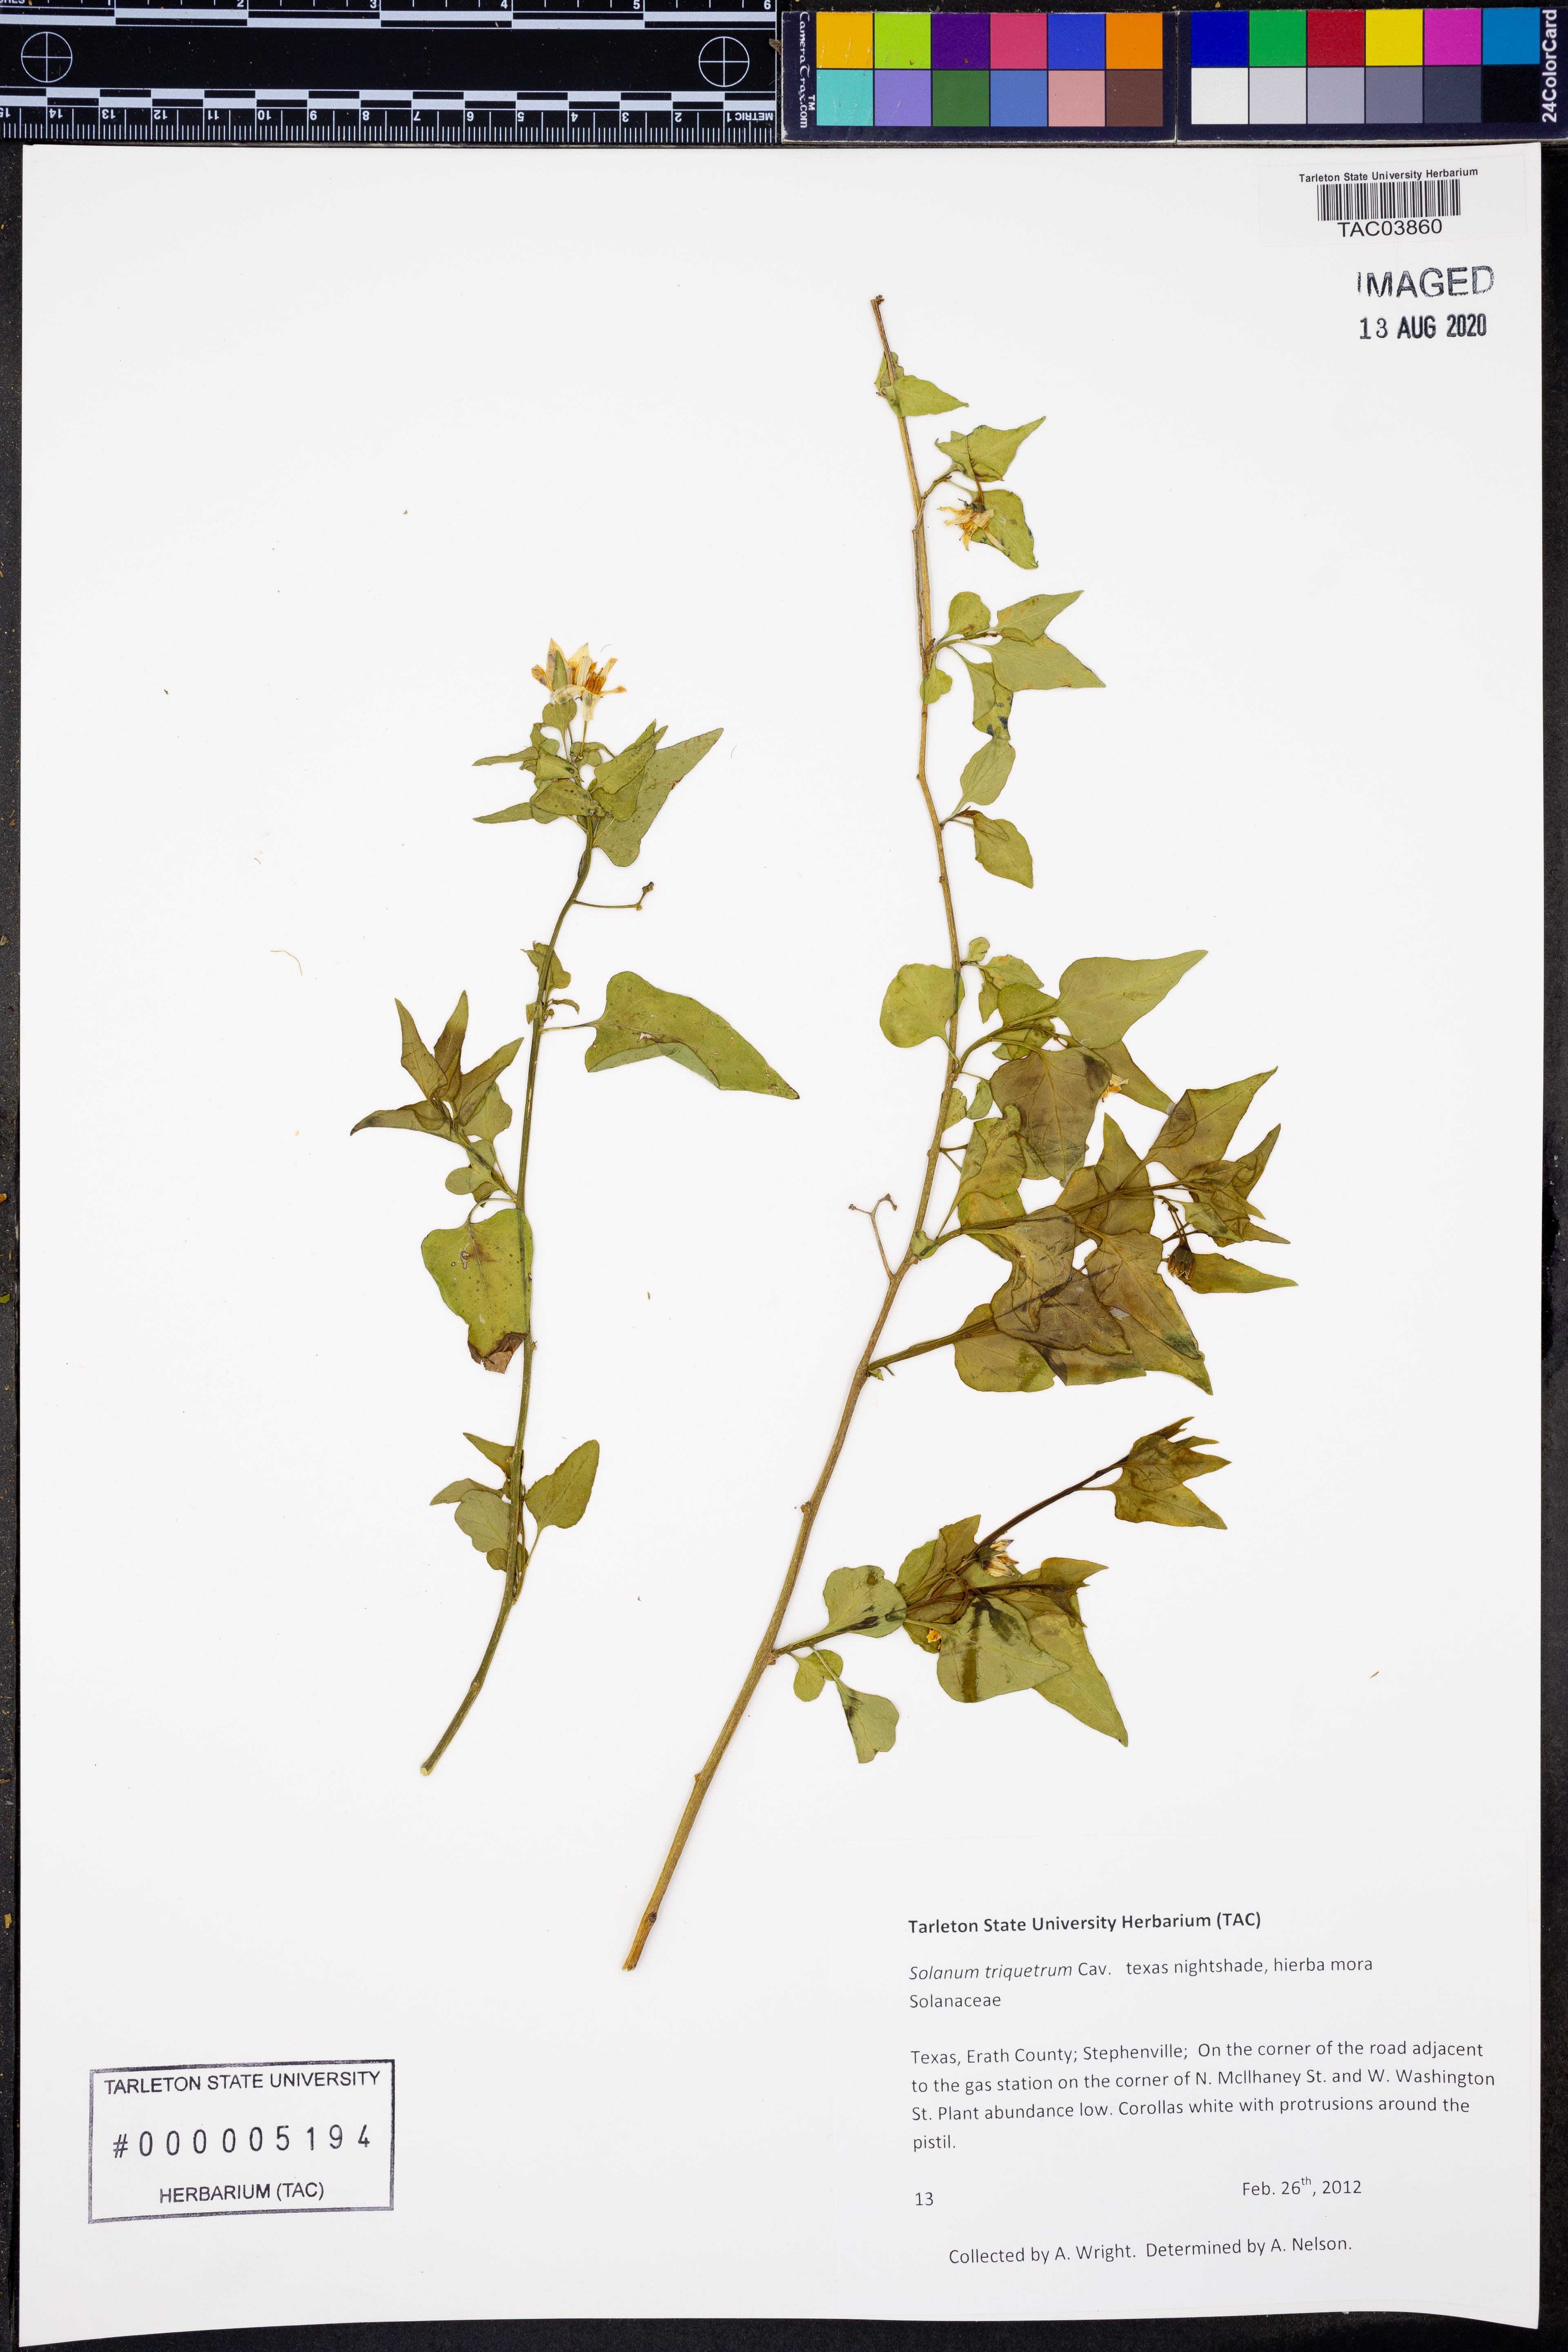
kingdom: Plantae
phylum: Tracheophyta
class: Magnoliopsida
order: Solanales
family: Solanaceae
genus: Solanum
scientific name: Solanum triquetrum
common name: Texas nightshade
